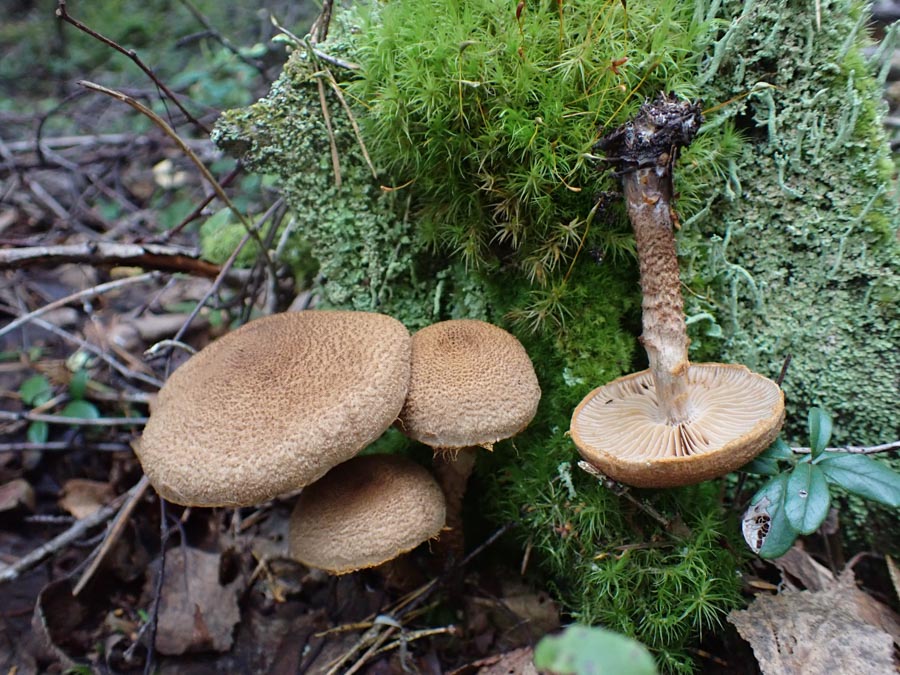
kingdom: Fungi
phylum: Basidiomycota
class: Agaricomycetes
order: Agaricales
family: Cortinariaceae
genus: Cortinarius
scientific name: Cortinarius pholideus
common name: brunskællet slørhat
